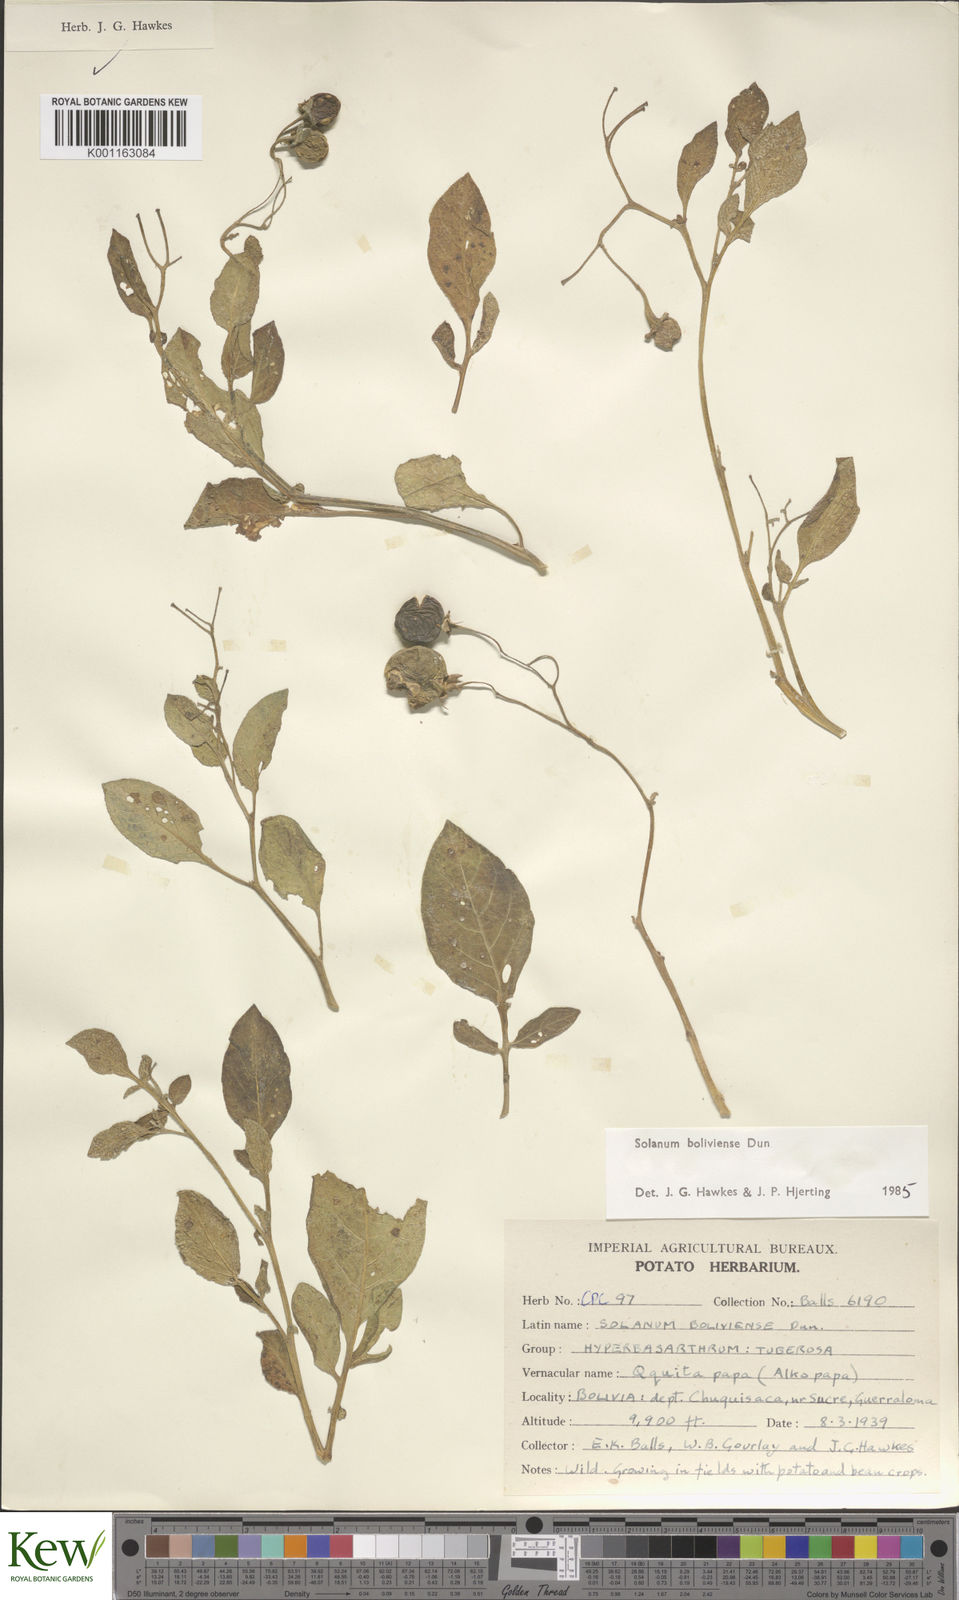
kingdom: Plantae
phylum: Tracheophyta
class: Magnoliopsida
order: Solanales
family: Solanaceae
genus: Solanum
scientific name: Solanum boliviense
